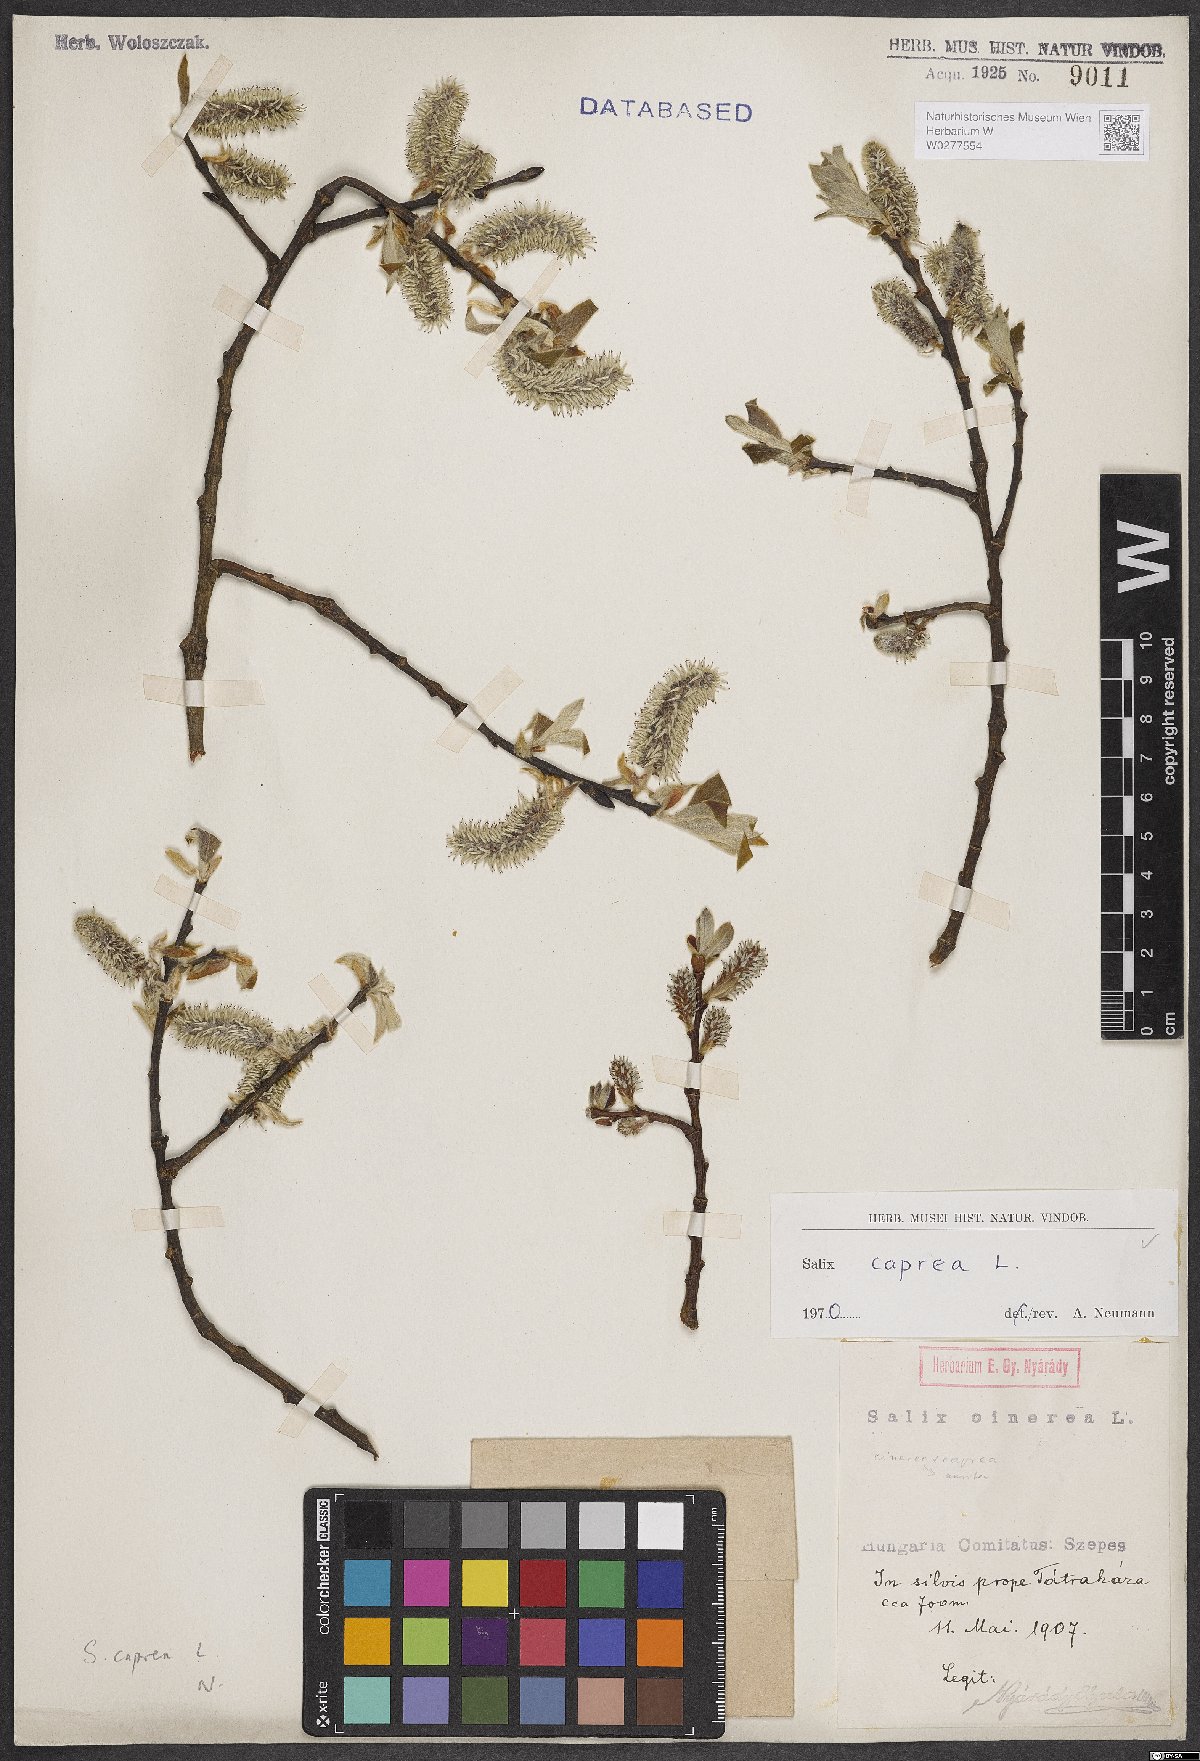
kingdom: Plantae
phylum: Tracheophyta
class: Magnoliopsida
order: Malpighiales
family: Salicaceae
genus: Salix
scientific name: Salix caprea
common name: Goat willow
